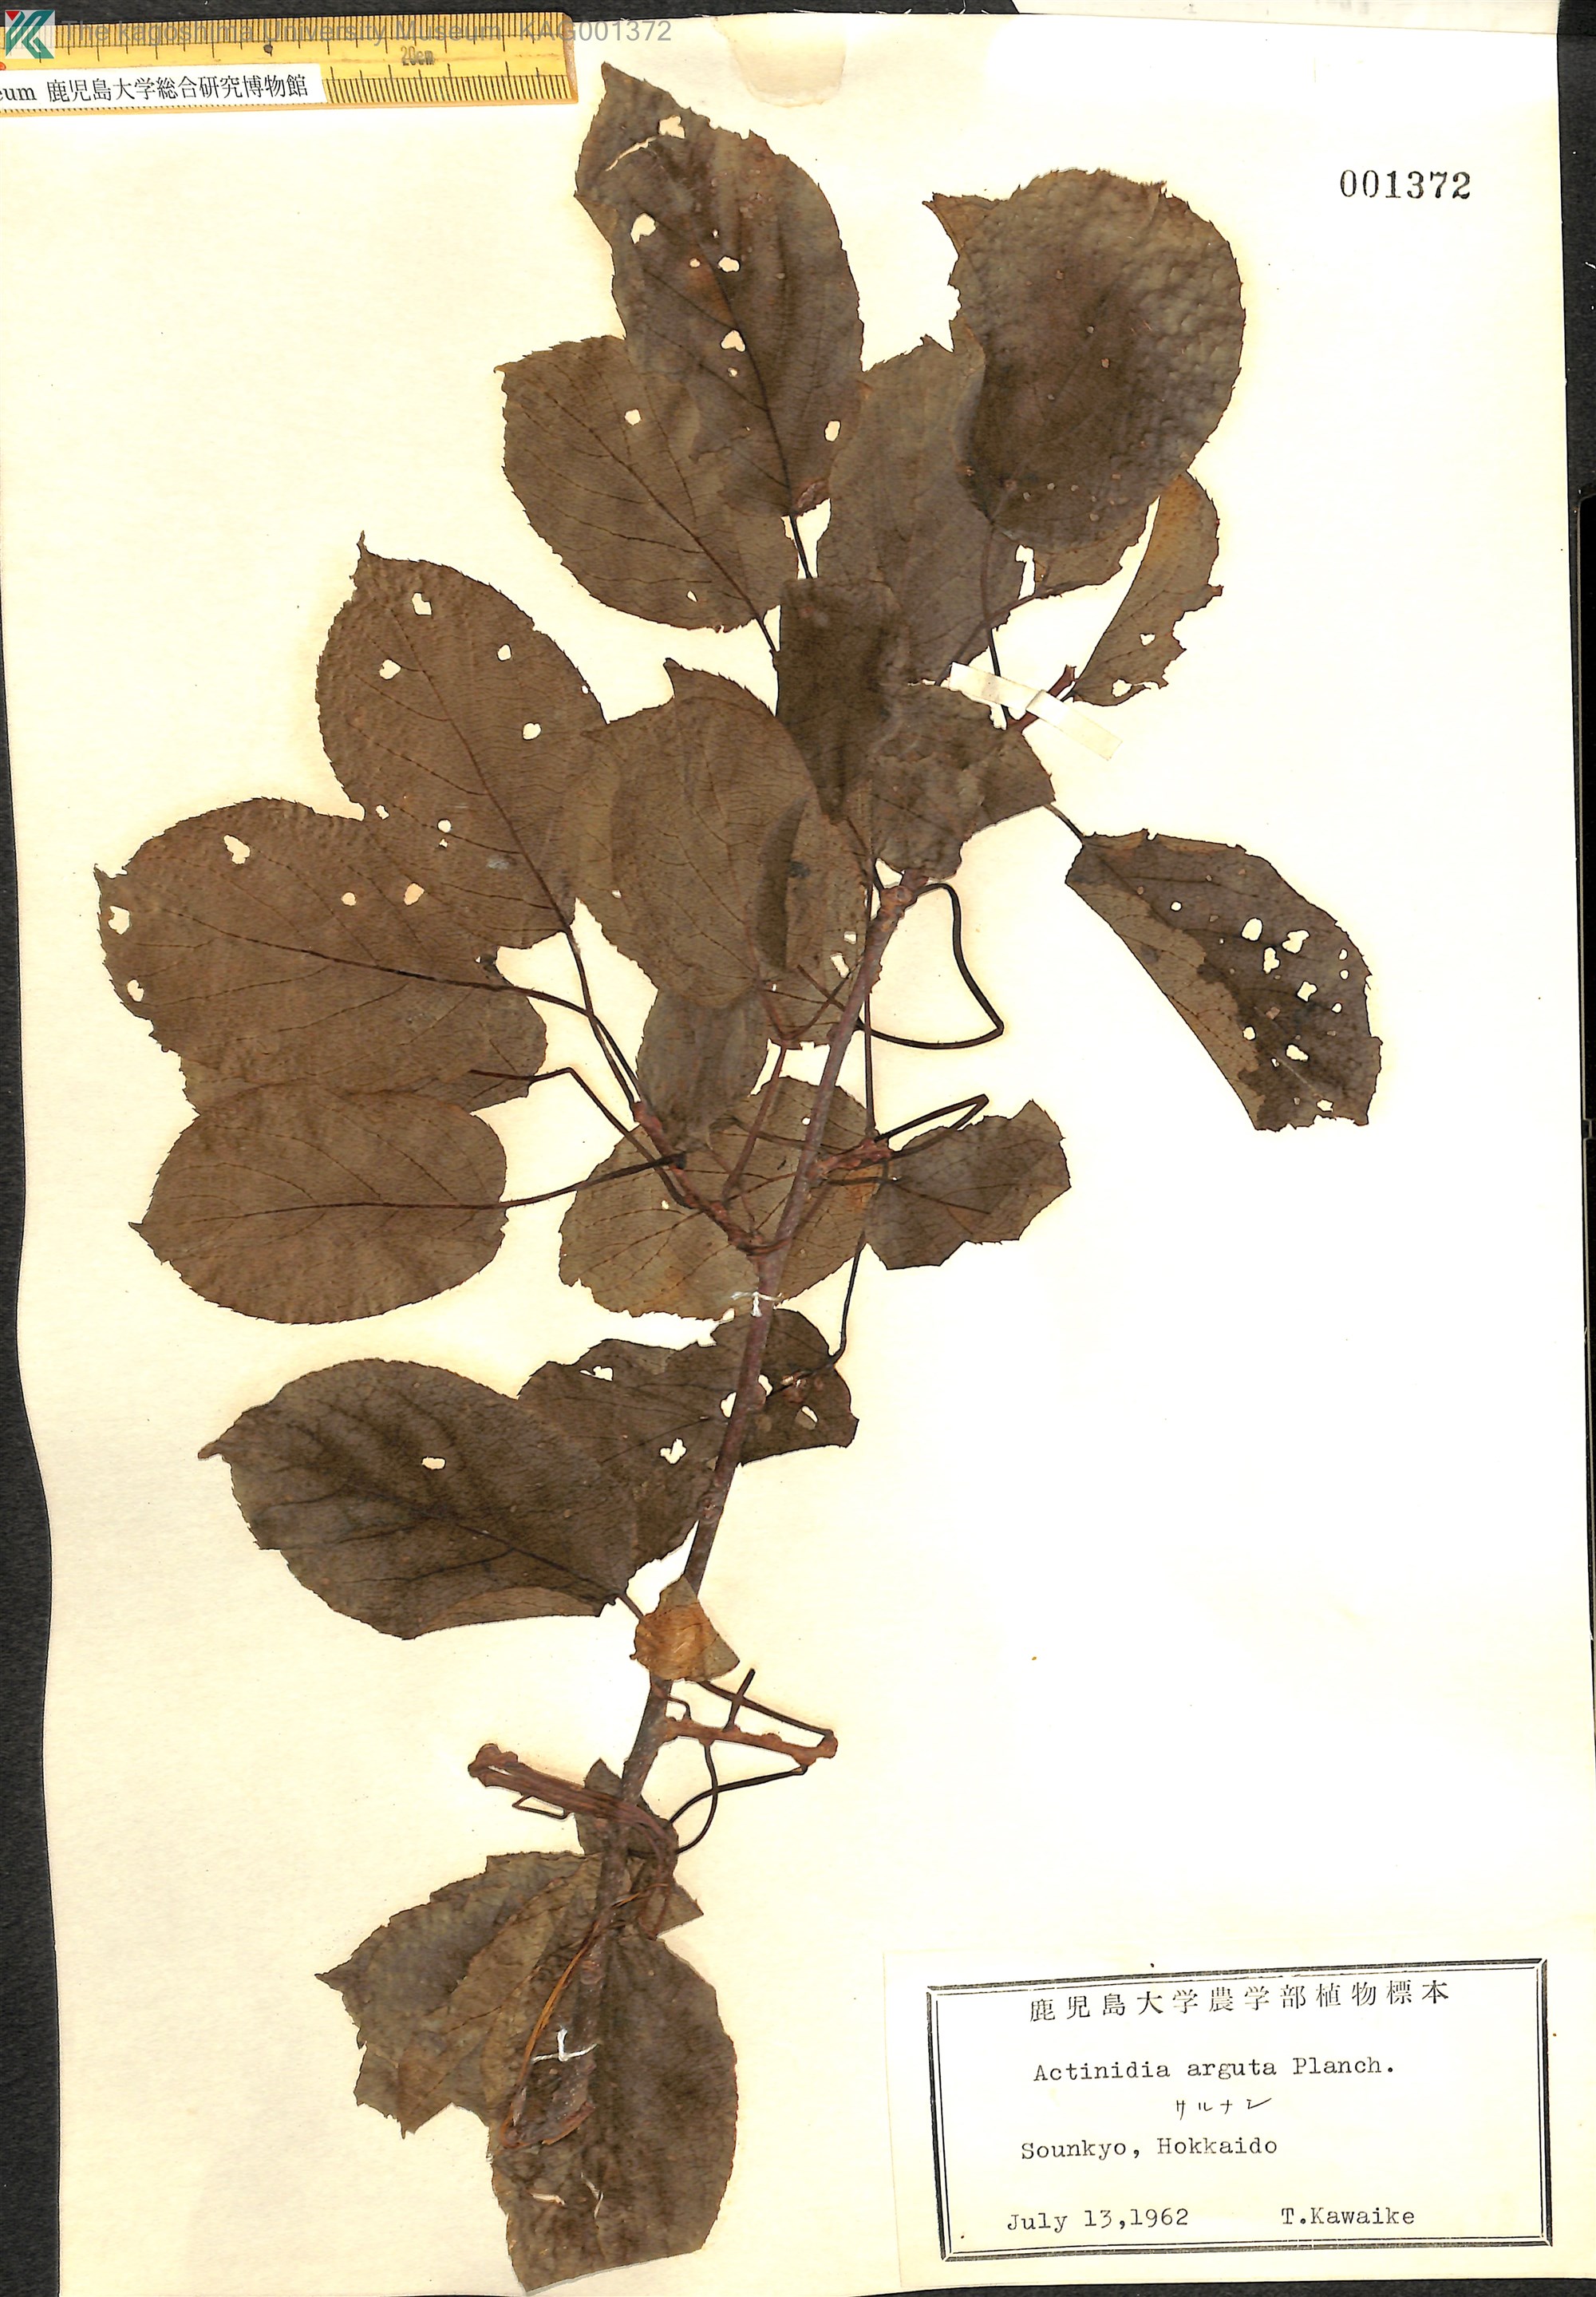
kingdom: Plantae
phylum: Tracheophyta
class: Magnoliopsida
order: Ericales
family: Actinidiaceae
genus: Actinidia
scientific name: Actinidia arguta
